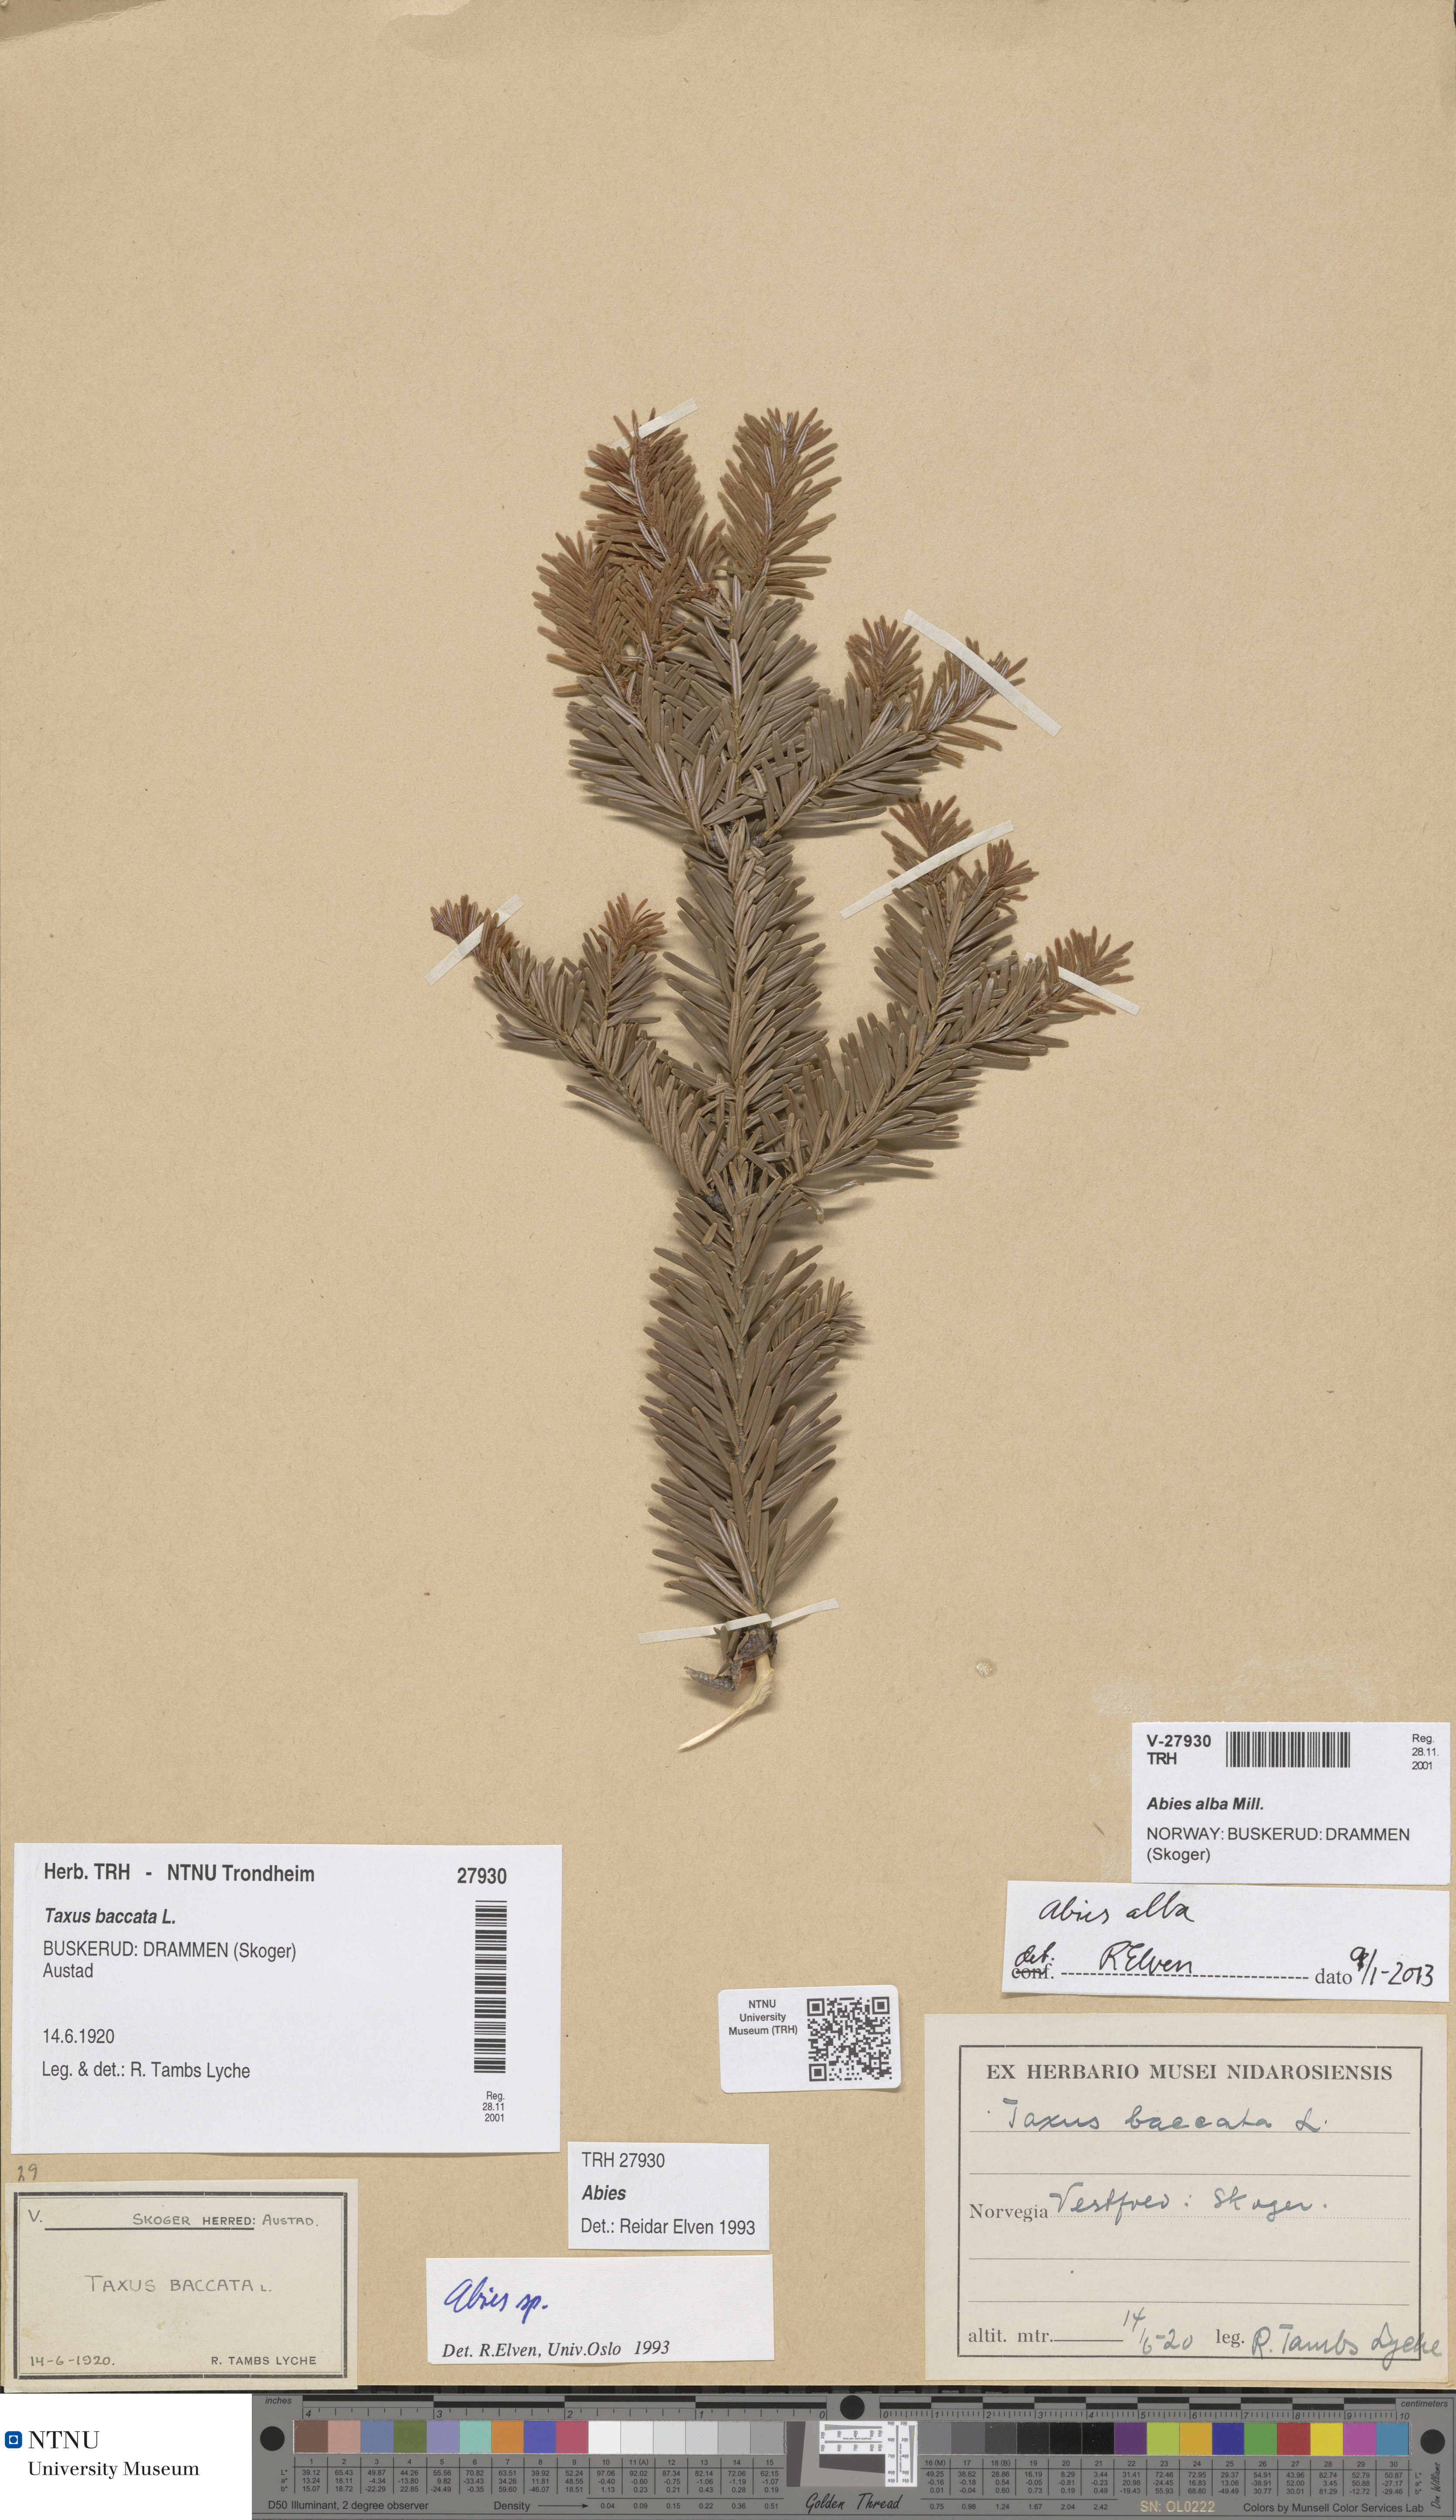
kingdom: Plantae
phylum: Tracheophyta
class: Pinopsida
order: Pinales
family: Pinaceae
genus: Abies
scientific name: Abies alba
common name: Silver fir
